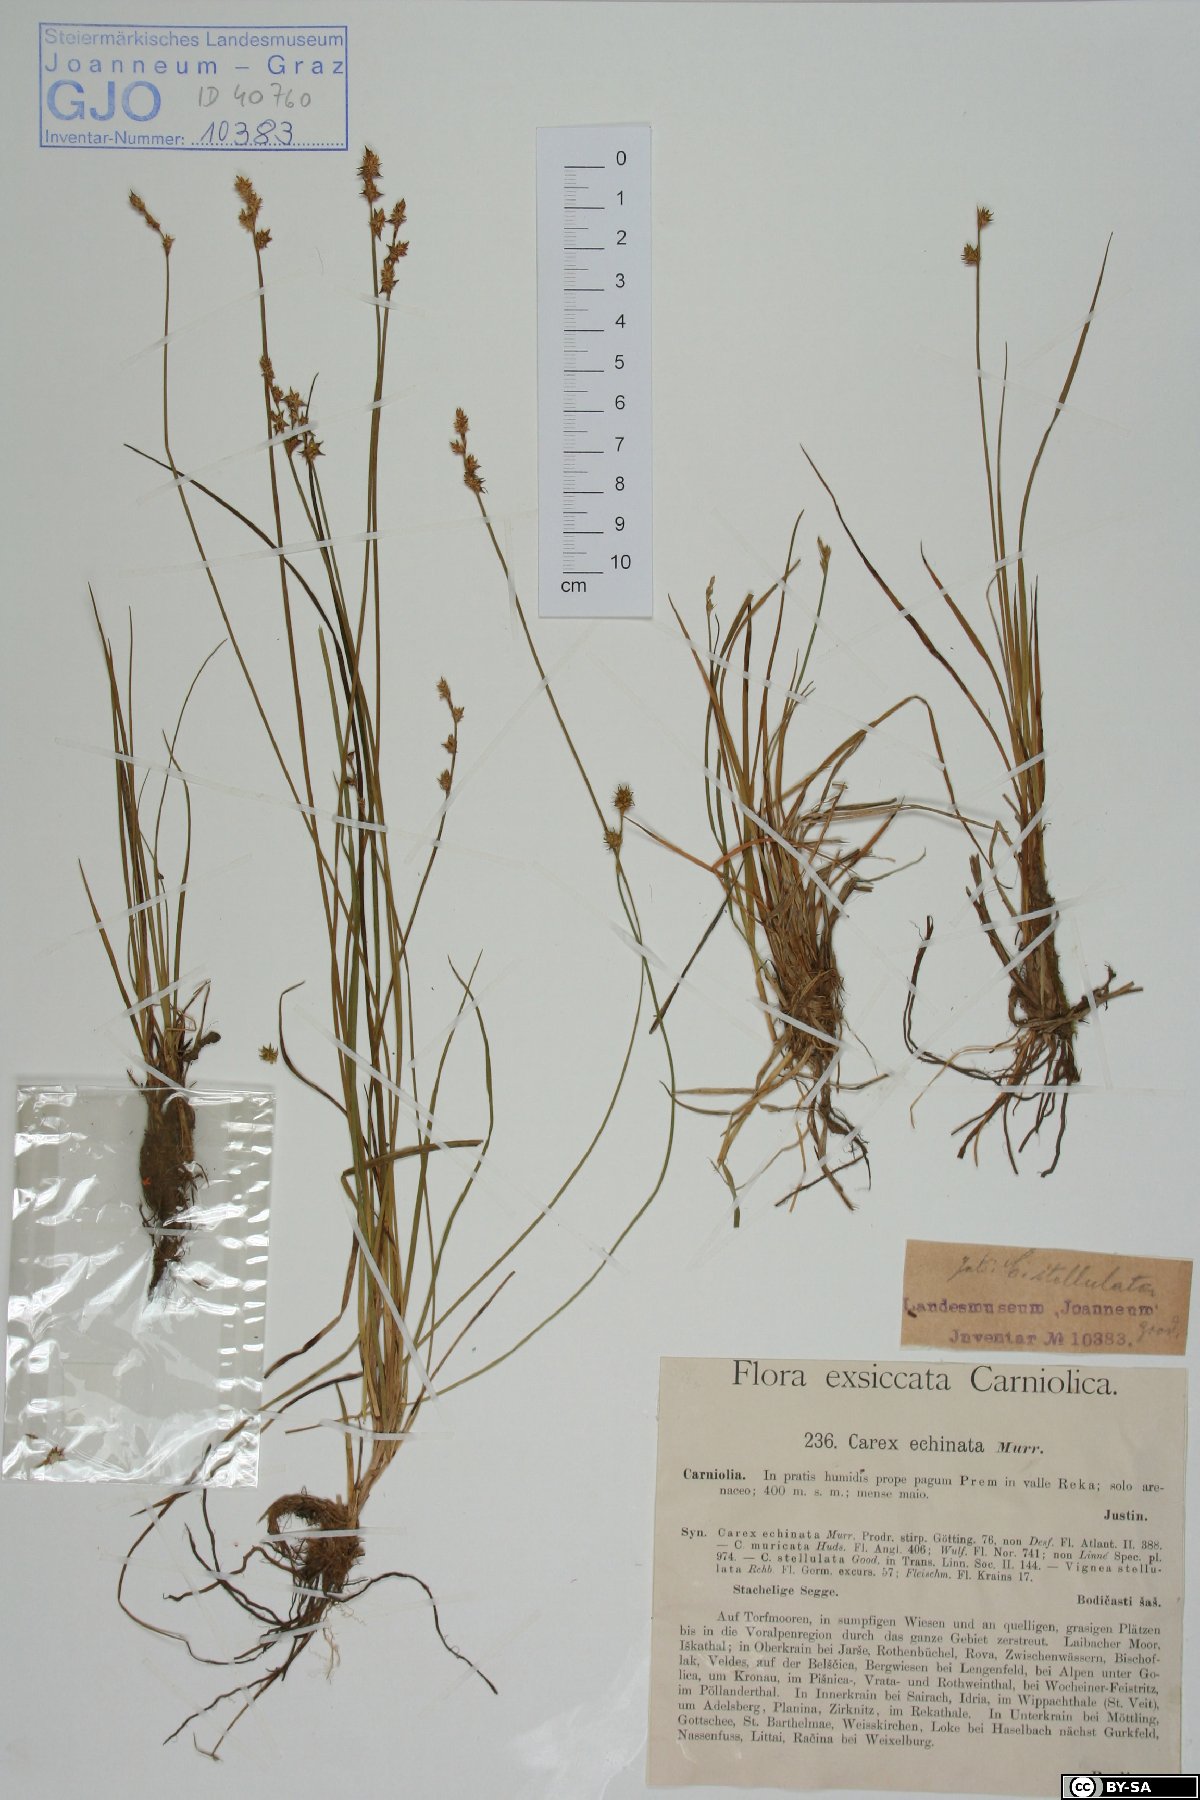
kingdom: Plantae
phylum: Tracheophyta
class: Liliopsida
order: Poales
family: Cyperaceae
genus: Carex
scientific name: Carex echinata
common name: Star sedge
